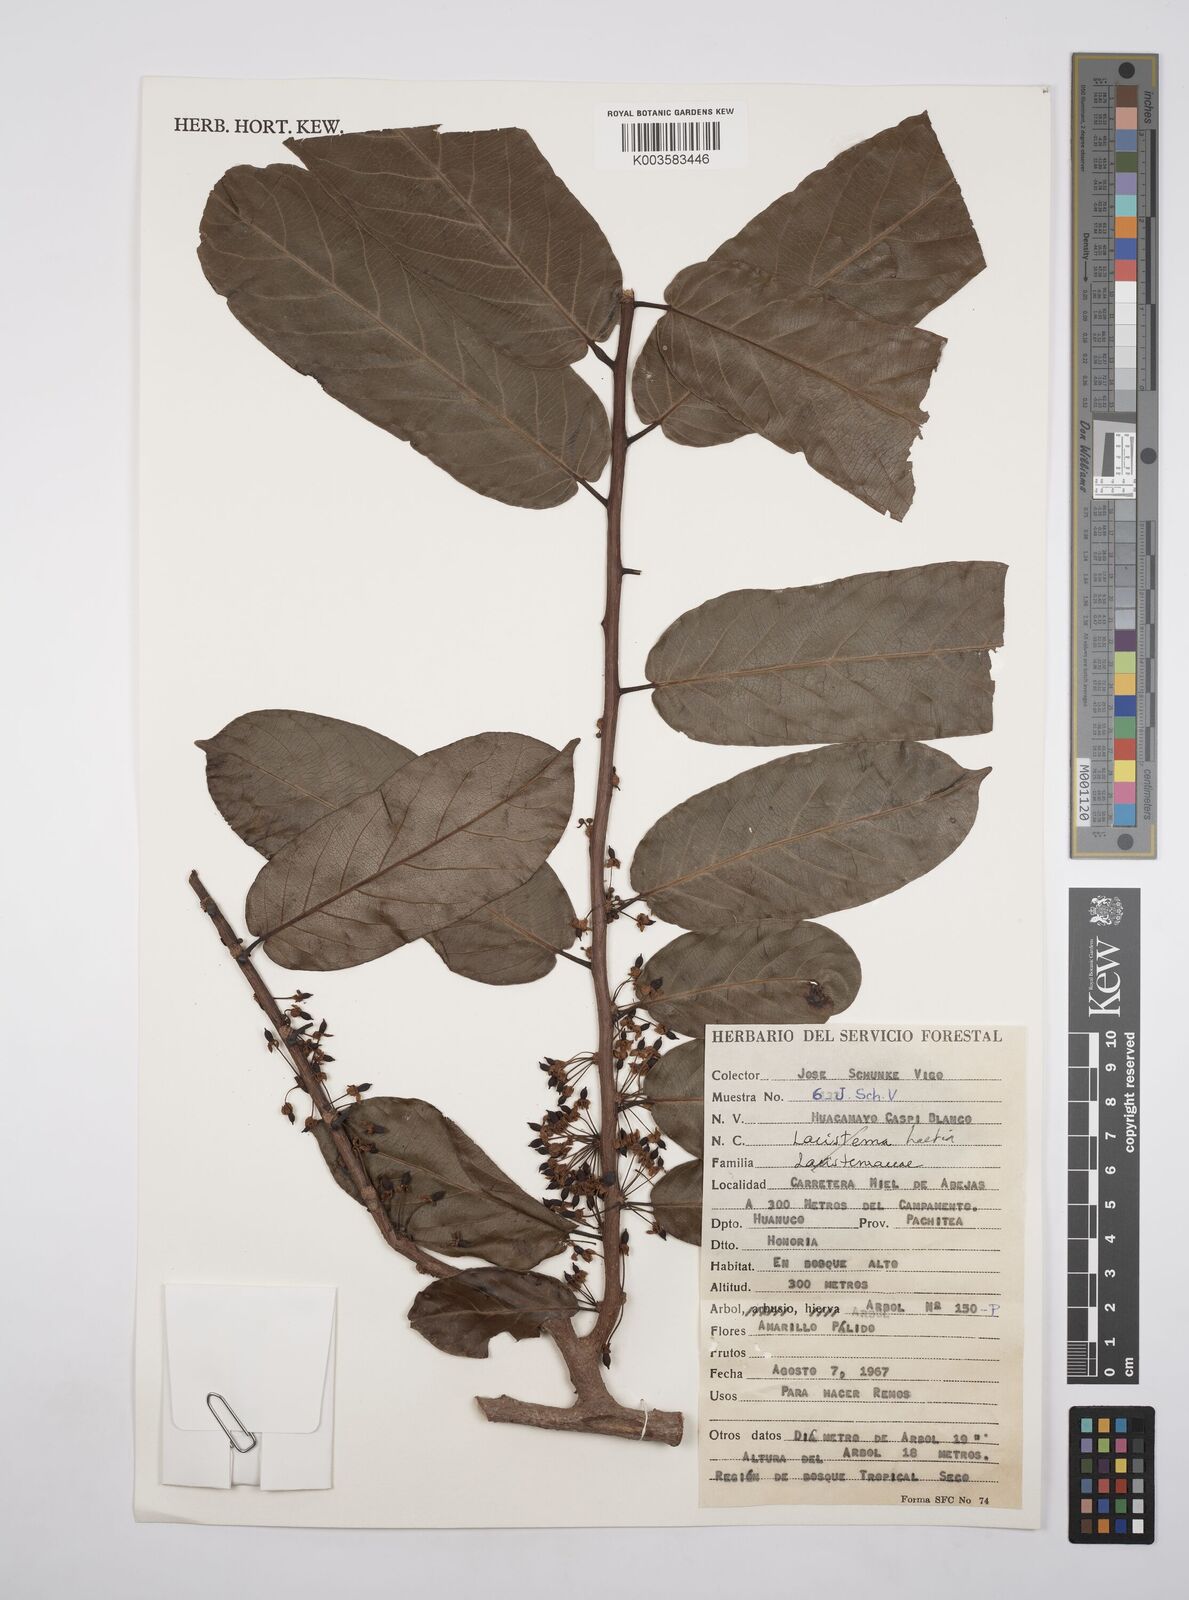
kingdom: Plantae
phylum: Tracheophyta
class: Magnoliopsida
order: Malpighiales
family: Flacourtiaceae
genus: Laetia
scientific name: Laetia
